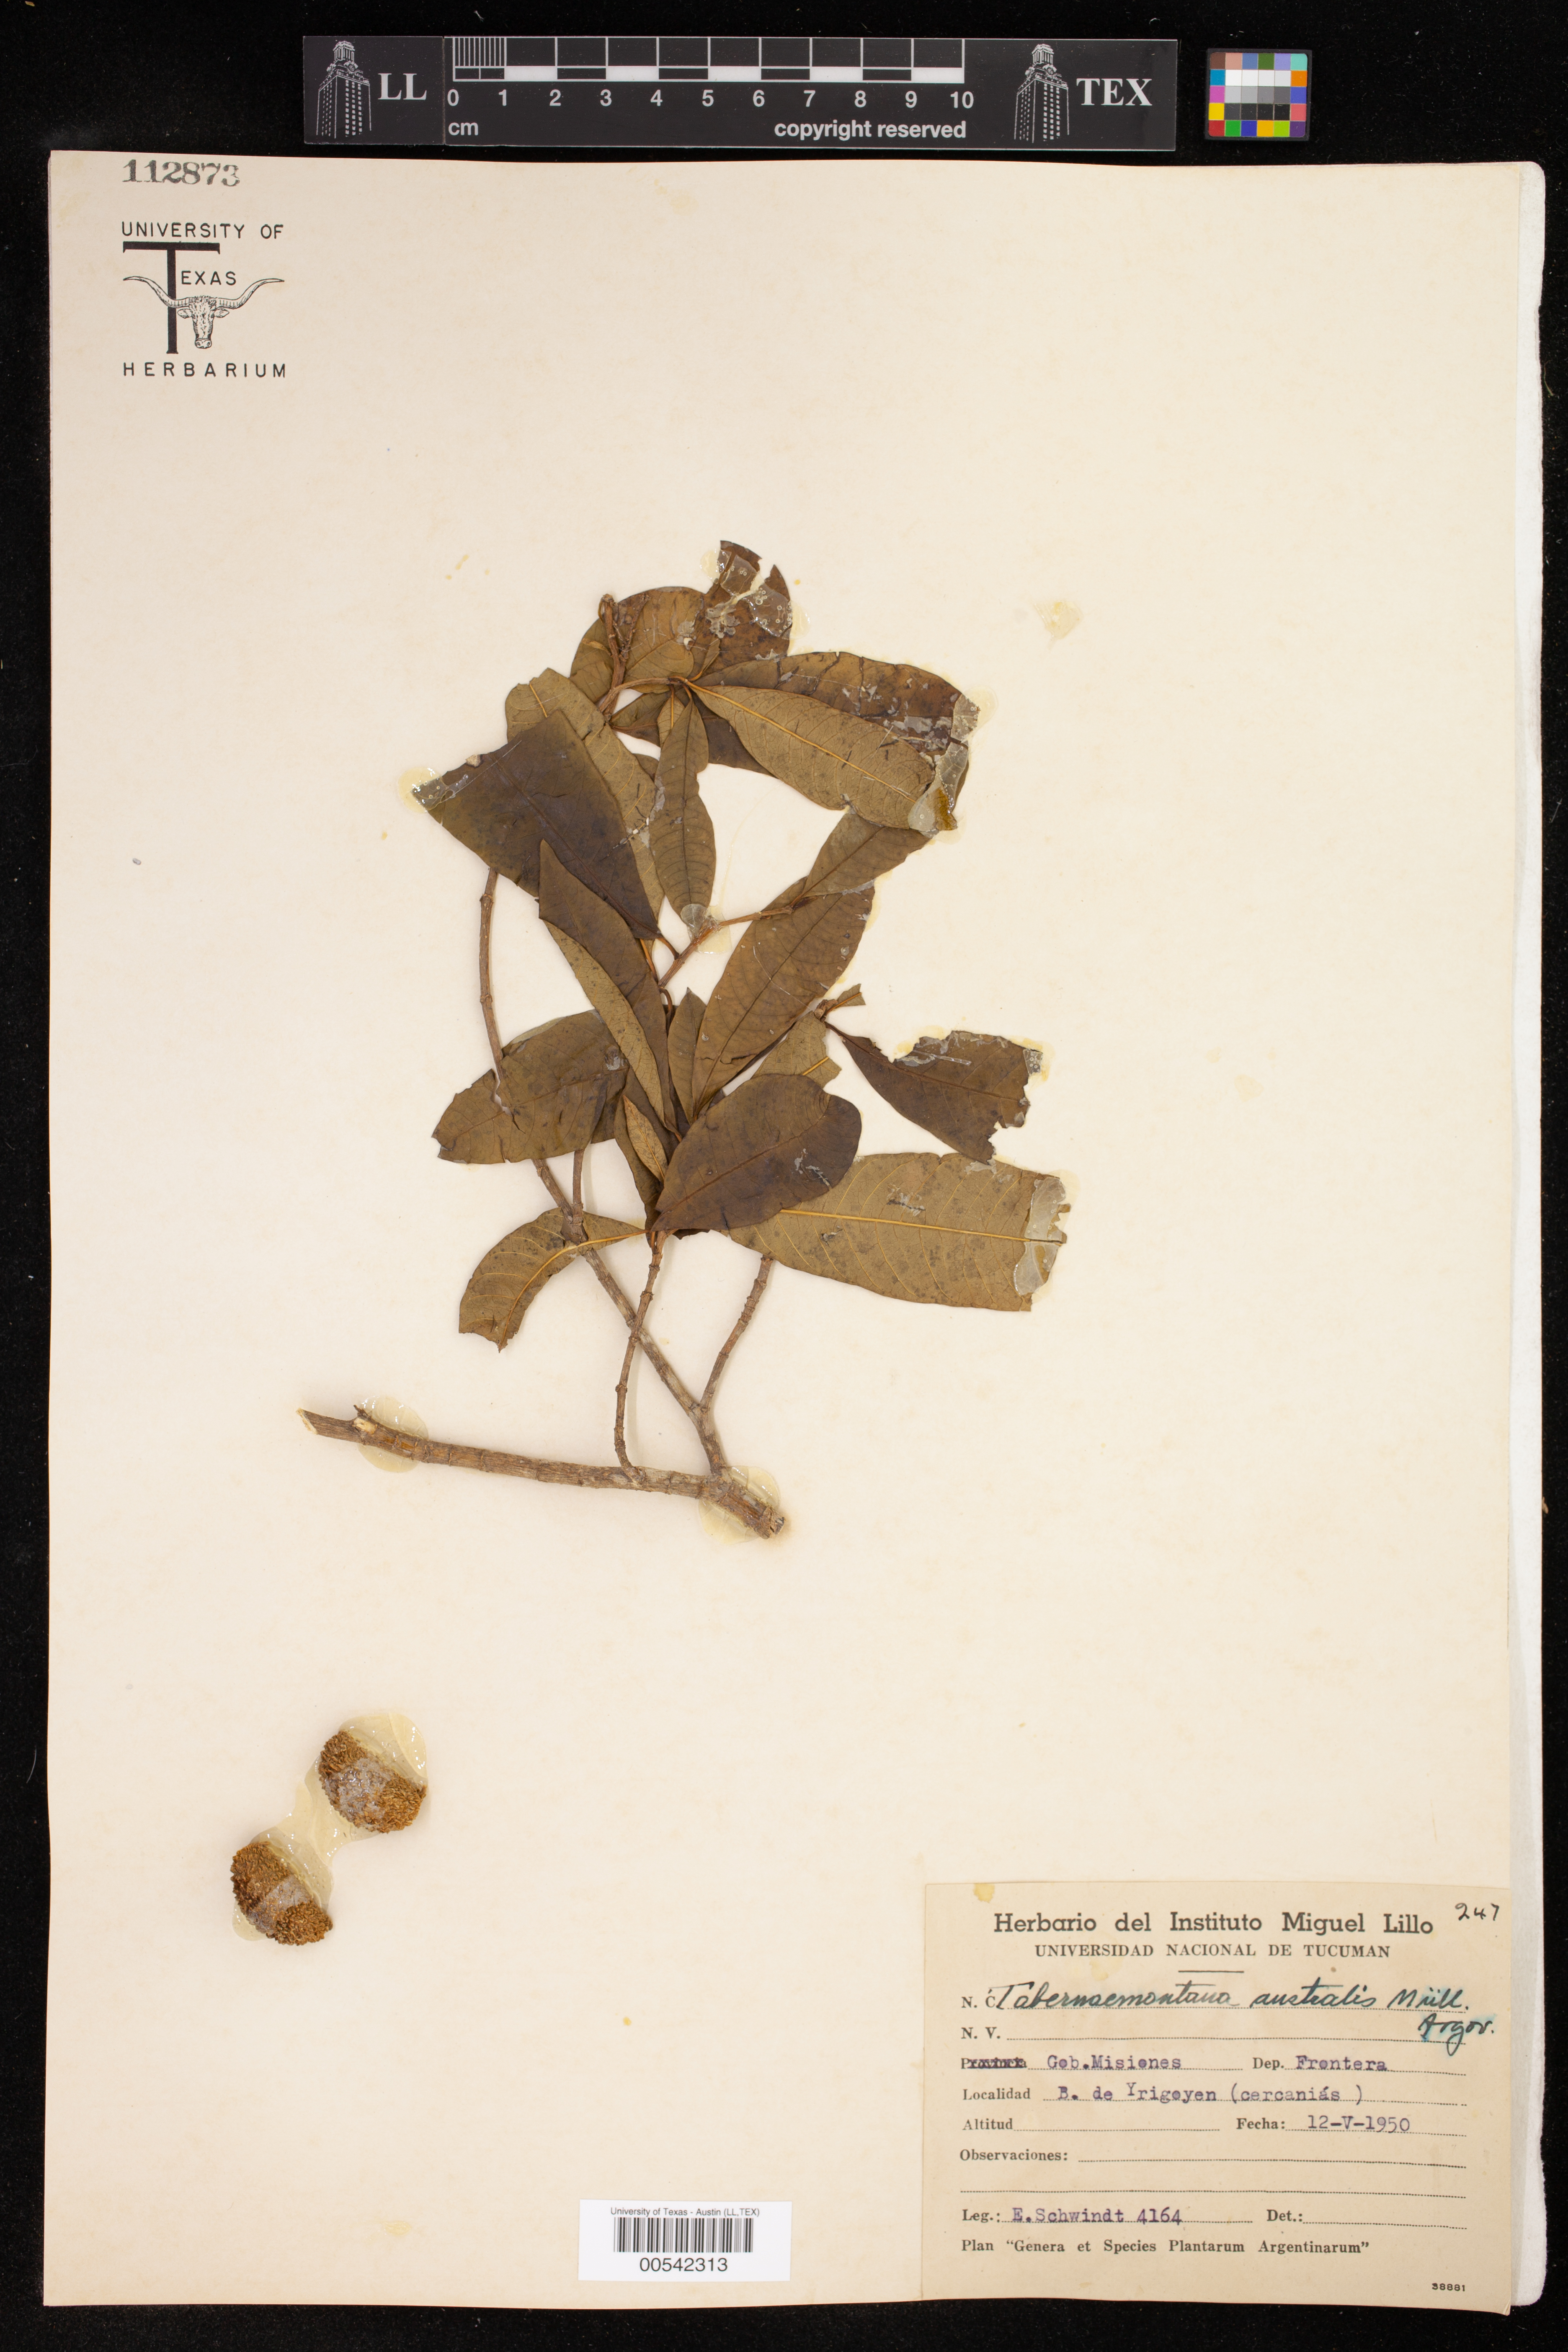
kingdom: Plantae
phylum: Tracheophyta
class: Magnoliopsida
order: Gentianales
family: Apocynaceae
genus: Tabernaemontana
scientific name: Tabernaemontana catharinensis
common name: Pinwheel-flower
